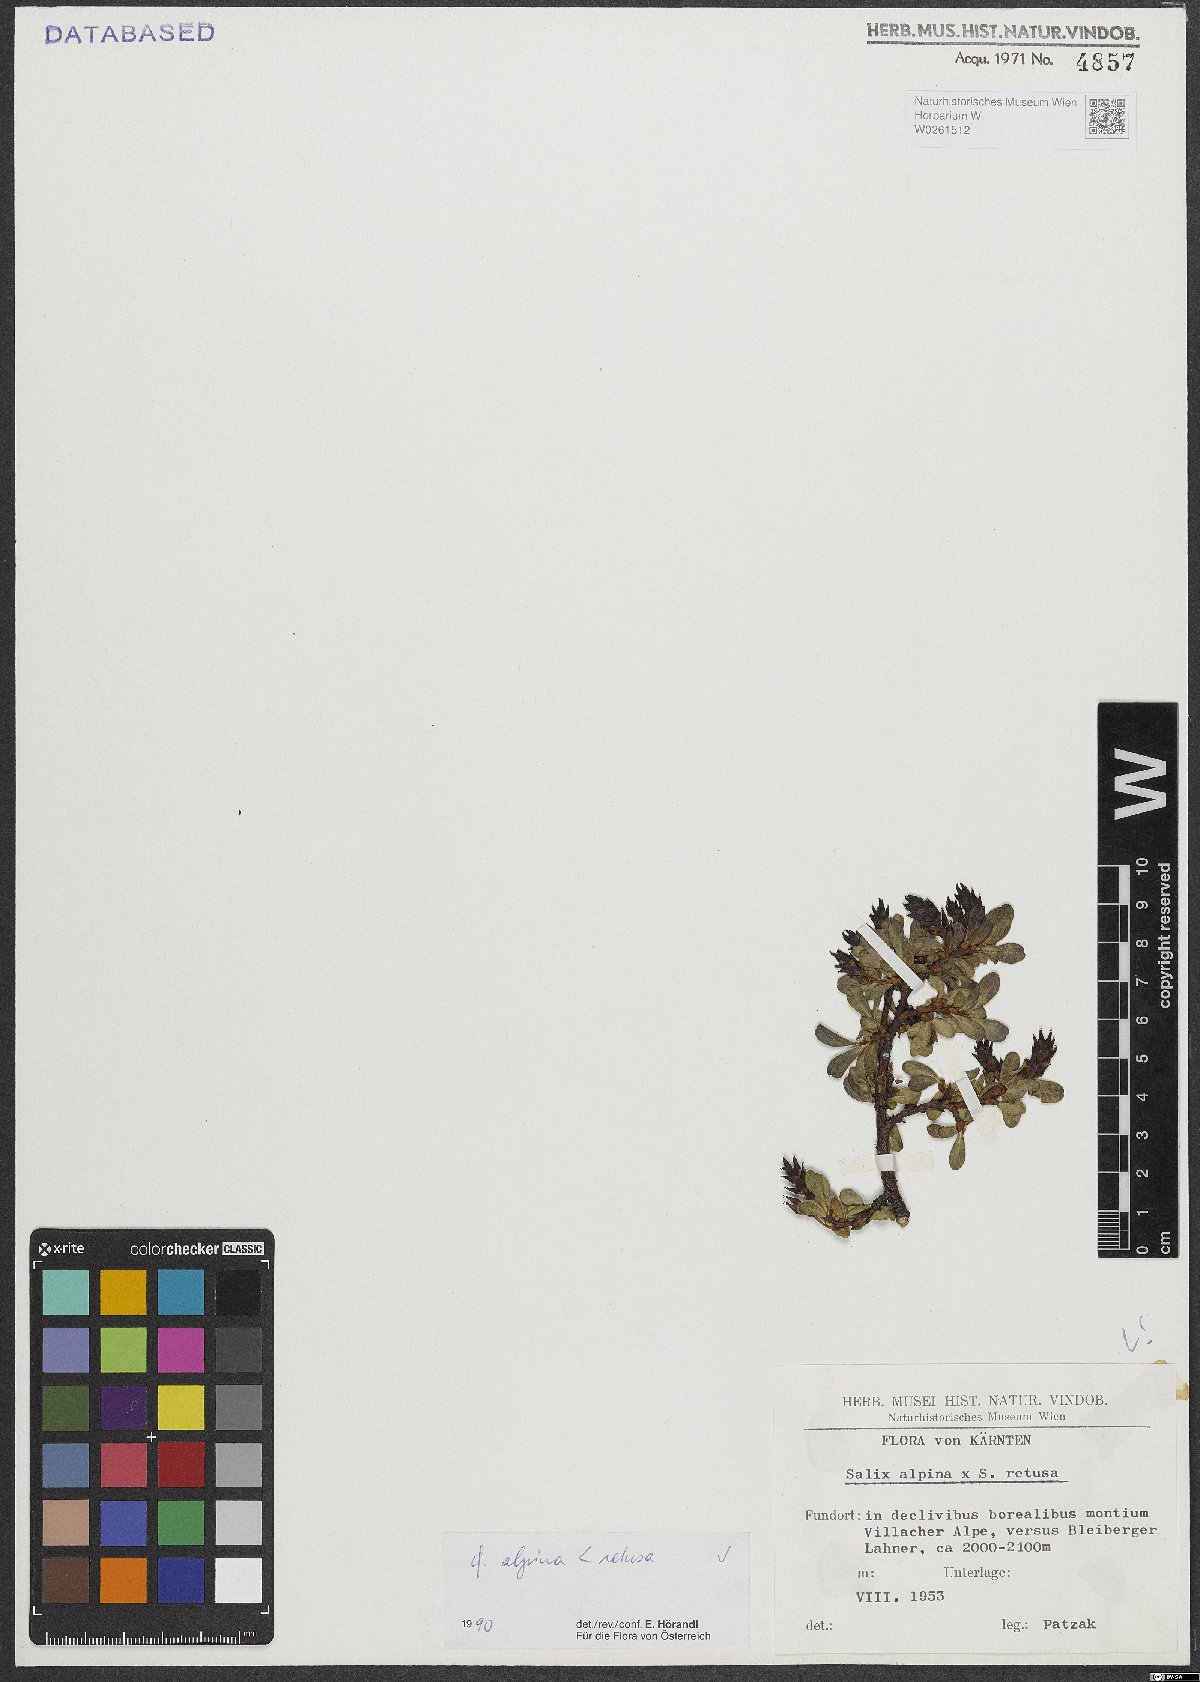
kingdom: Plantae
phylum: Tracheophyta
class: Magnoliopsida
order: Malpighiales
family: Salicaceae
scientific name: Salicaceae
